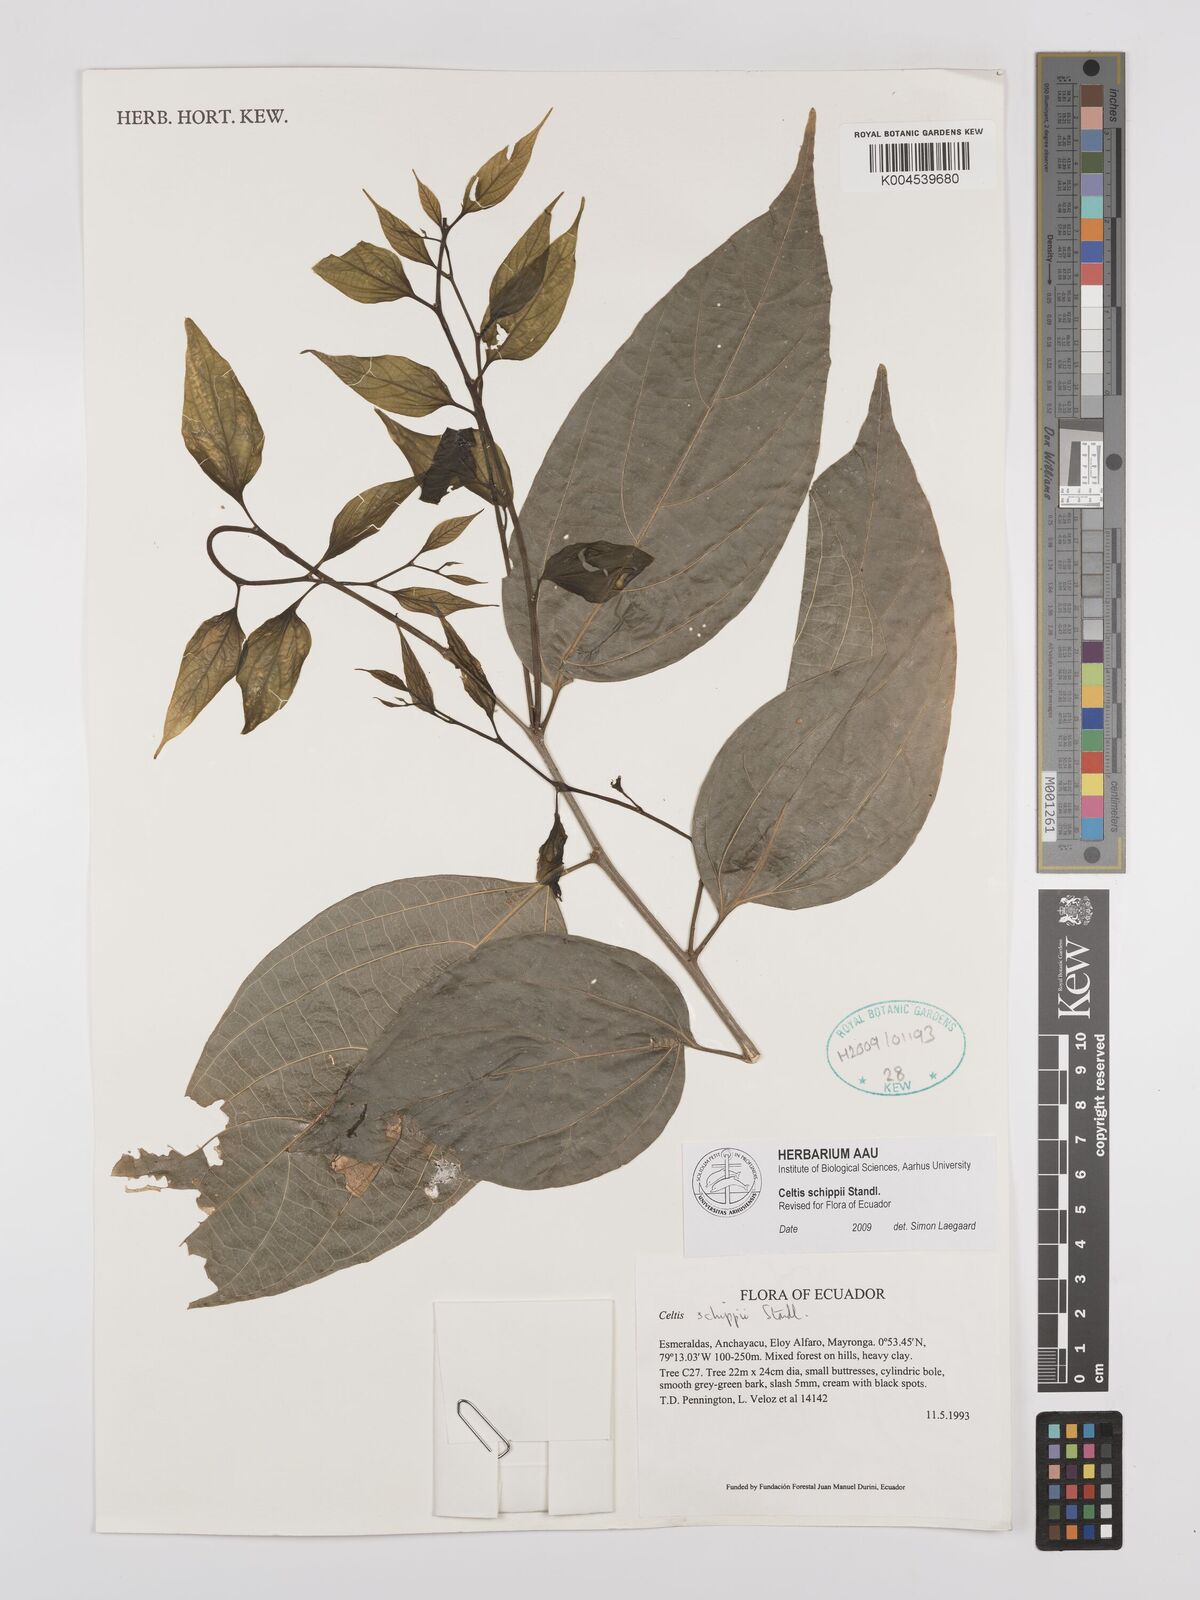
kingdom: Plantae
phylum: Tracheophyta
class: Magnoliopsida
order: Rosales
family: Cannabaceae
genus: Celtis
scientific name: Celtis schippii
